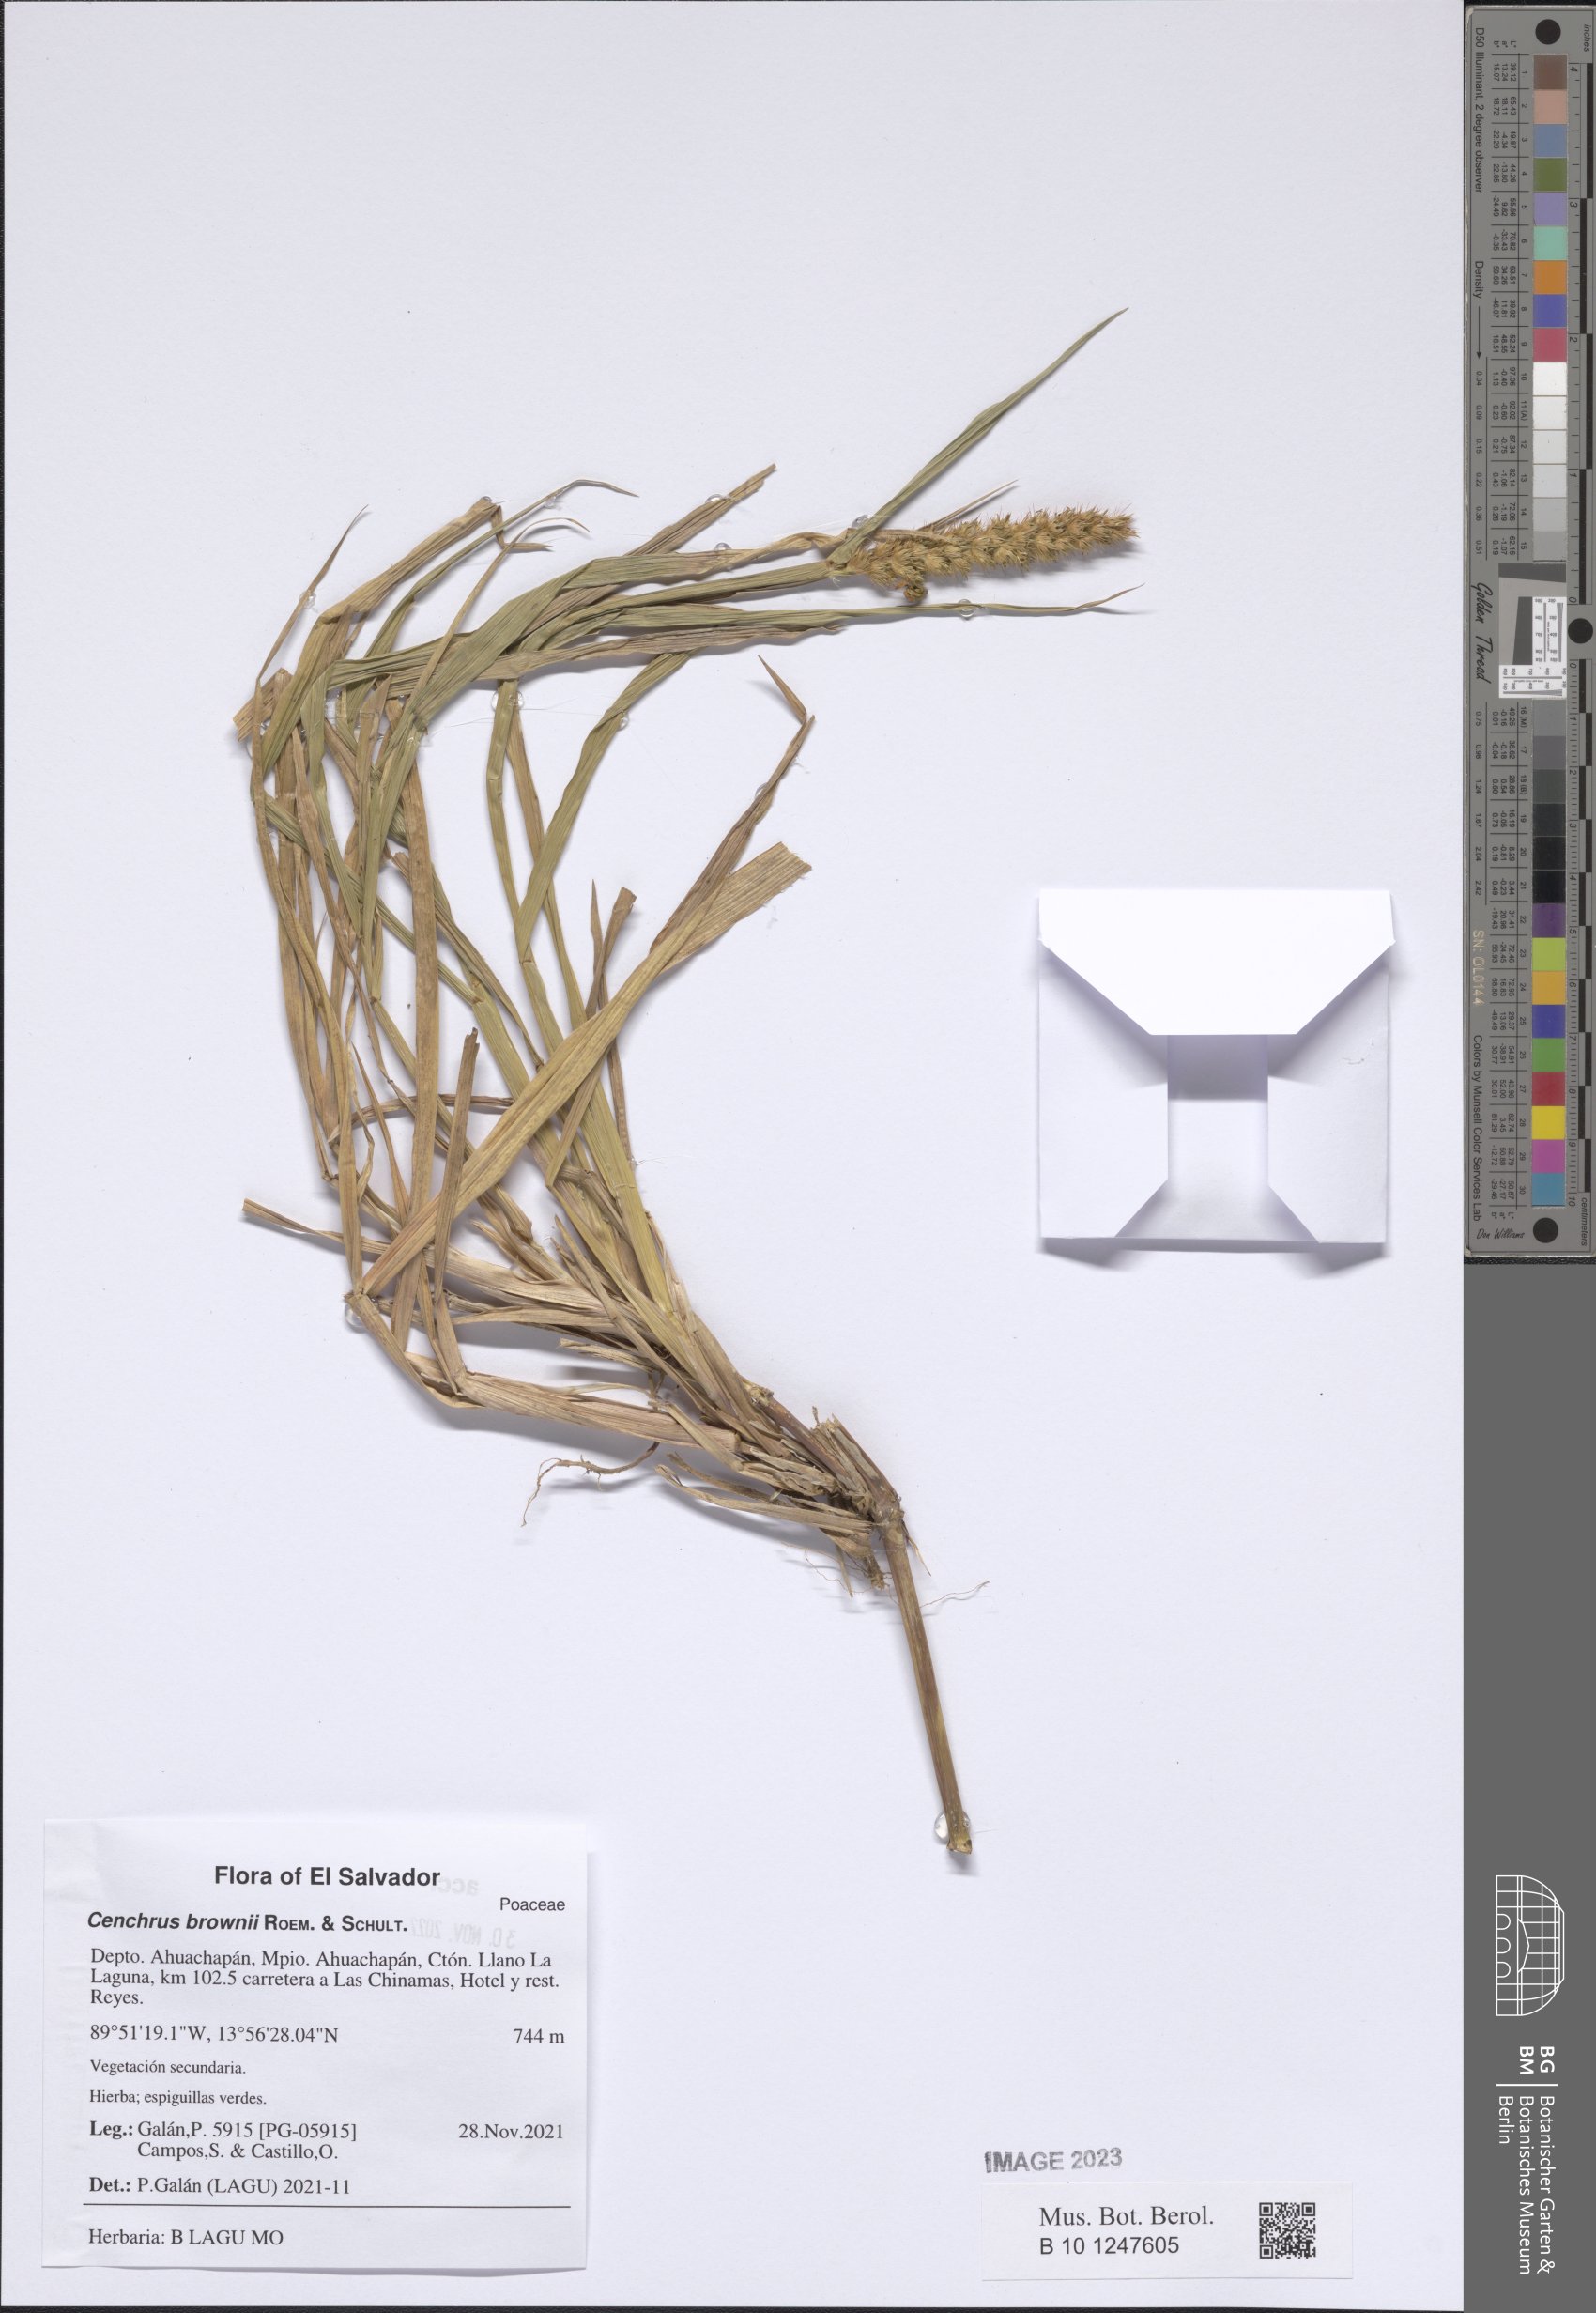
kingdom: Plantae
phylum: Tracheophyta
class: Liliopsida
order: Poales
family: Poaceae
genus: Cenchrus
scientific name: Cenchrus brownii
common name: Slim-bristle sandbur
